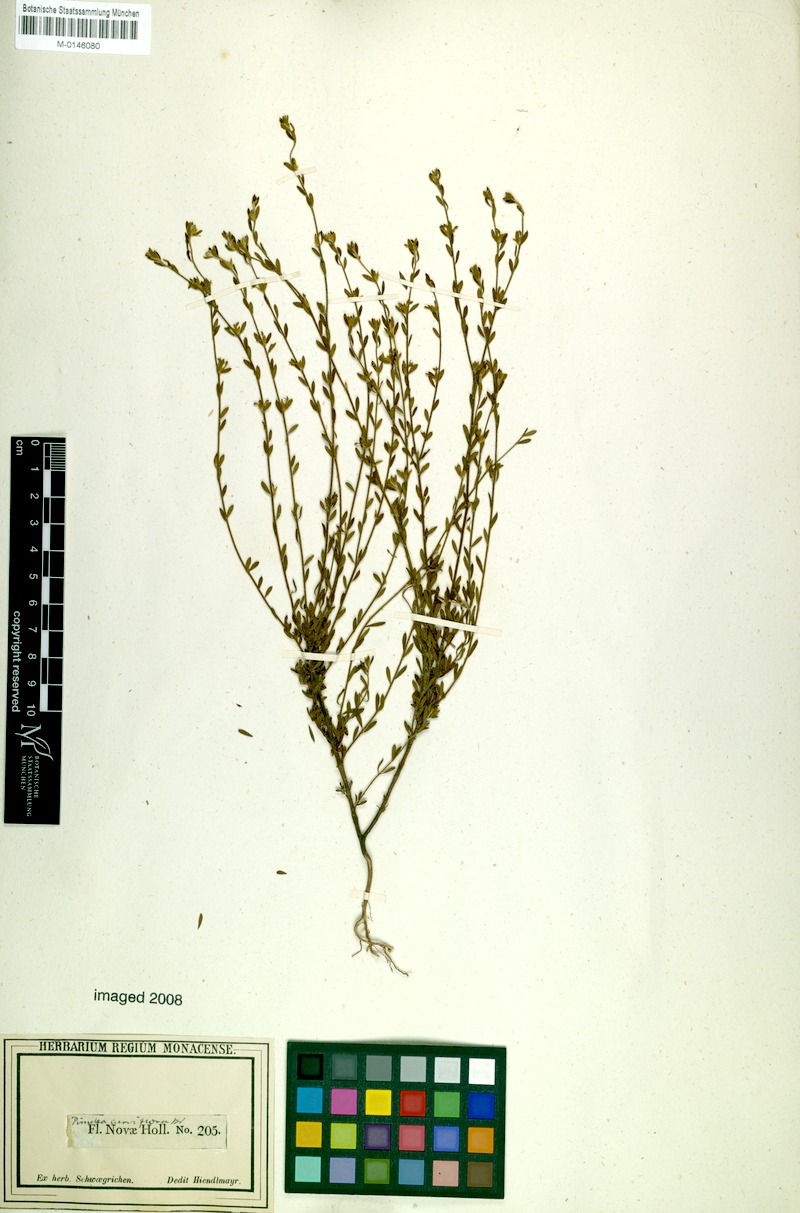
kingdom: Plantae
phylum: Tracheophyta
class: Magnoliopsida
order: Malvales
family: Thymelaeaceae
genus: Pimelea
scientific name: Pimelea curviflora
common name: Curved riceflower
